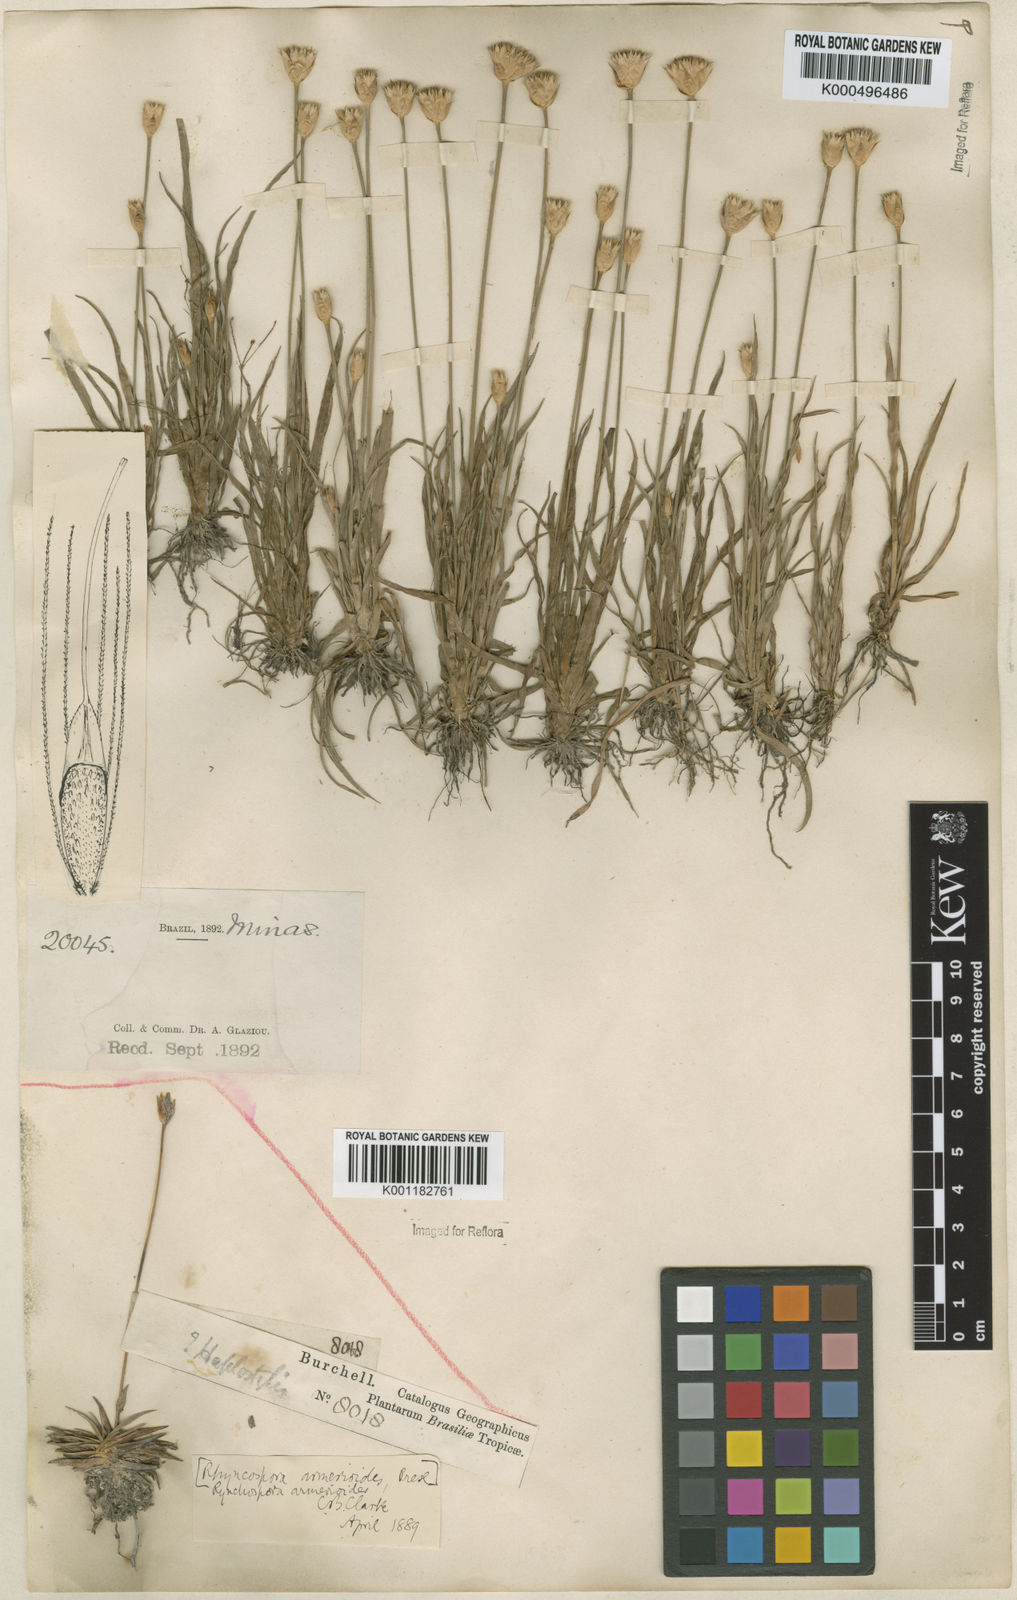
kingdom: Plantae
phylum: Tracheophyta
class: Liliopsida
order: Poales
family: Cyperaceae
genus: Rhynchospora
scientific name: Rhynchospora armerioides
